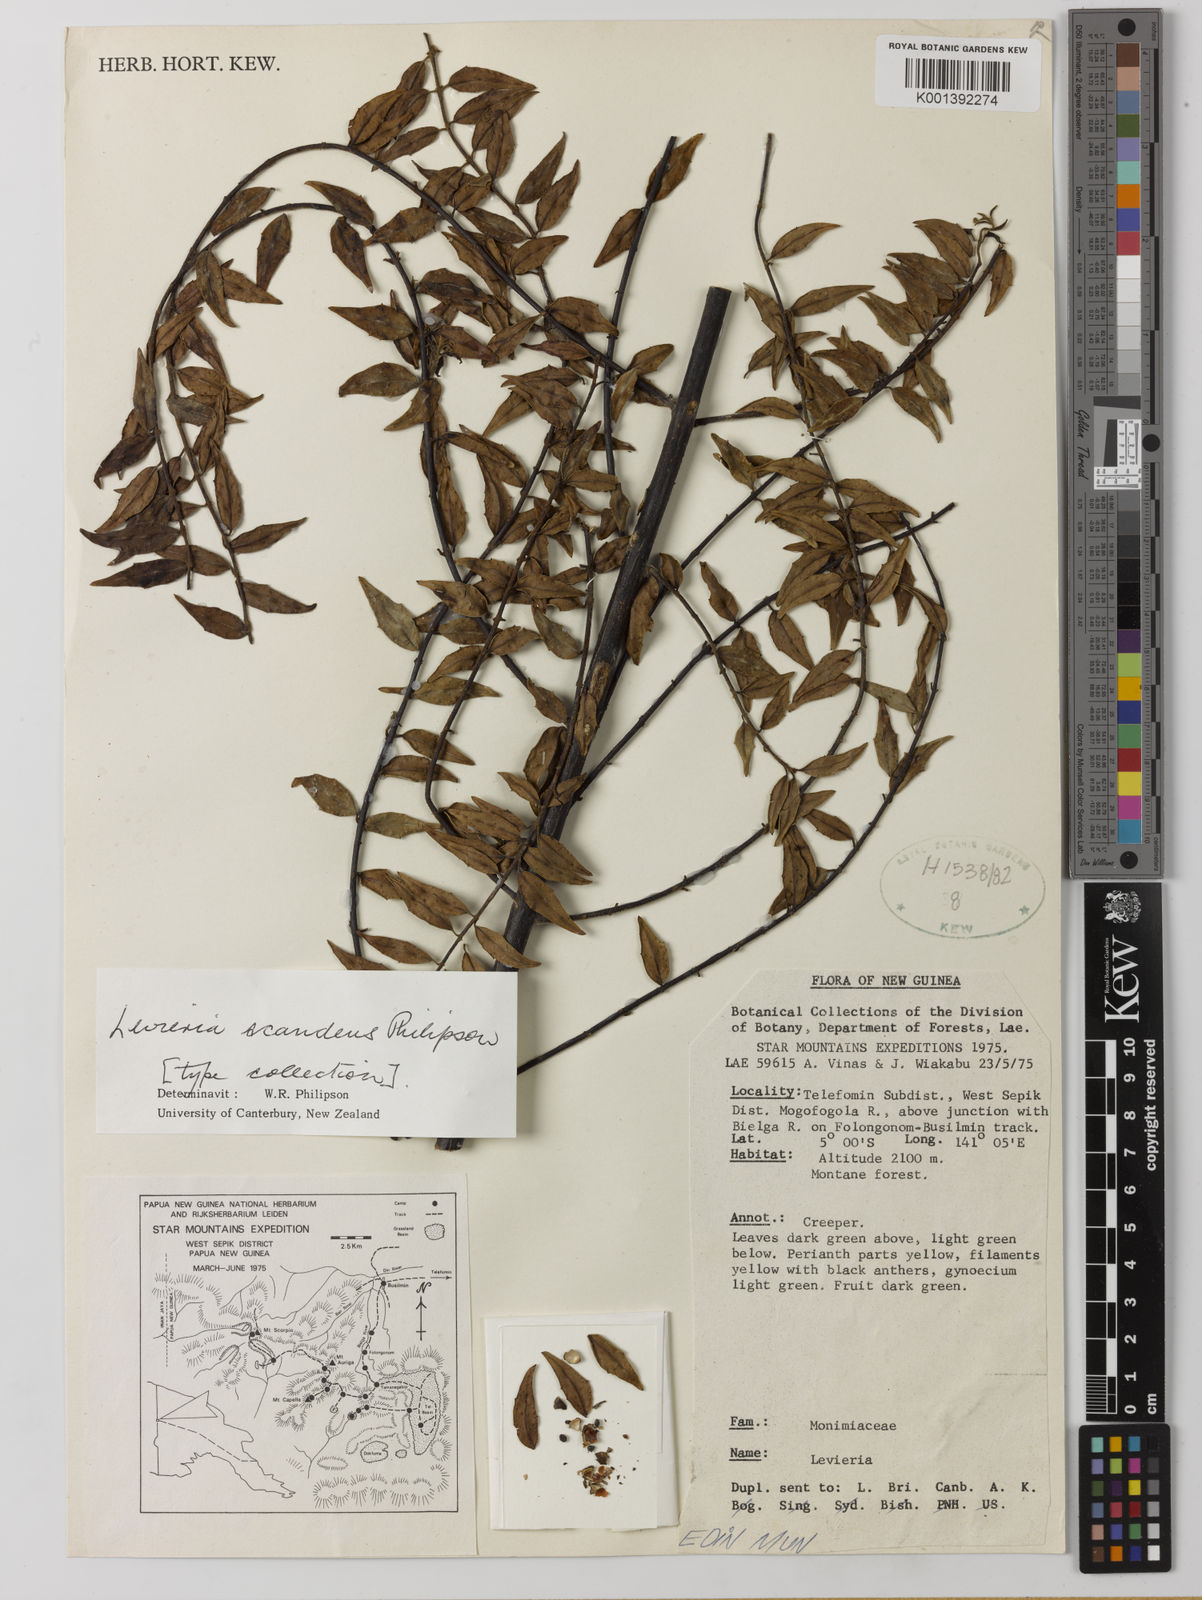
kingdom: Plantae
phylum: Tracheophyta
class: Magnoliopsida
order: Laurales
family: Monimiaceae
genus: Levieria
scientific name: Levieria scandens
